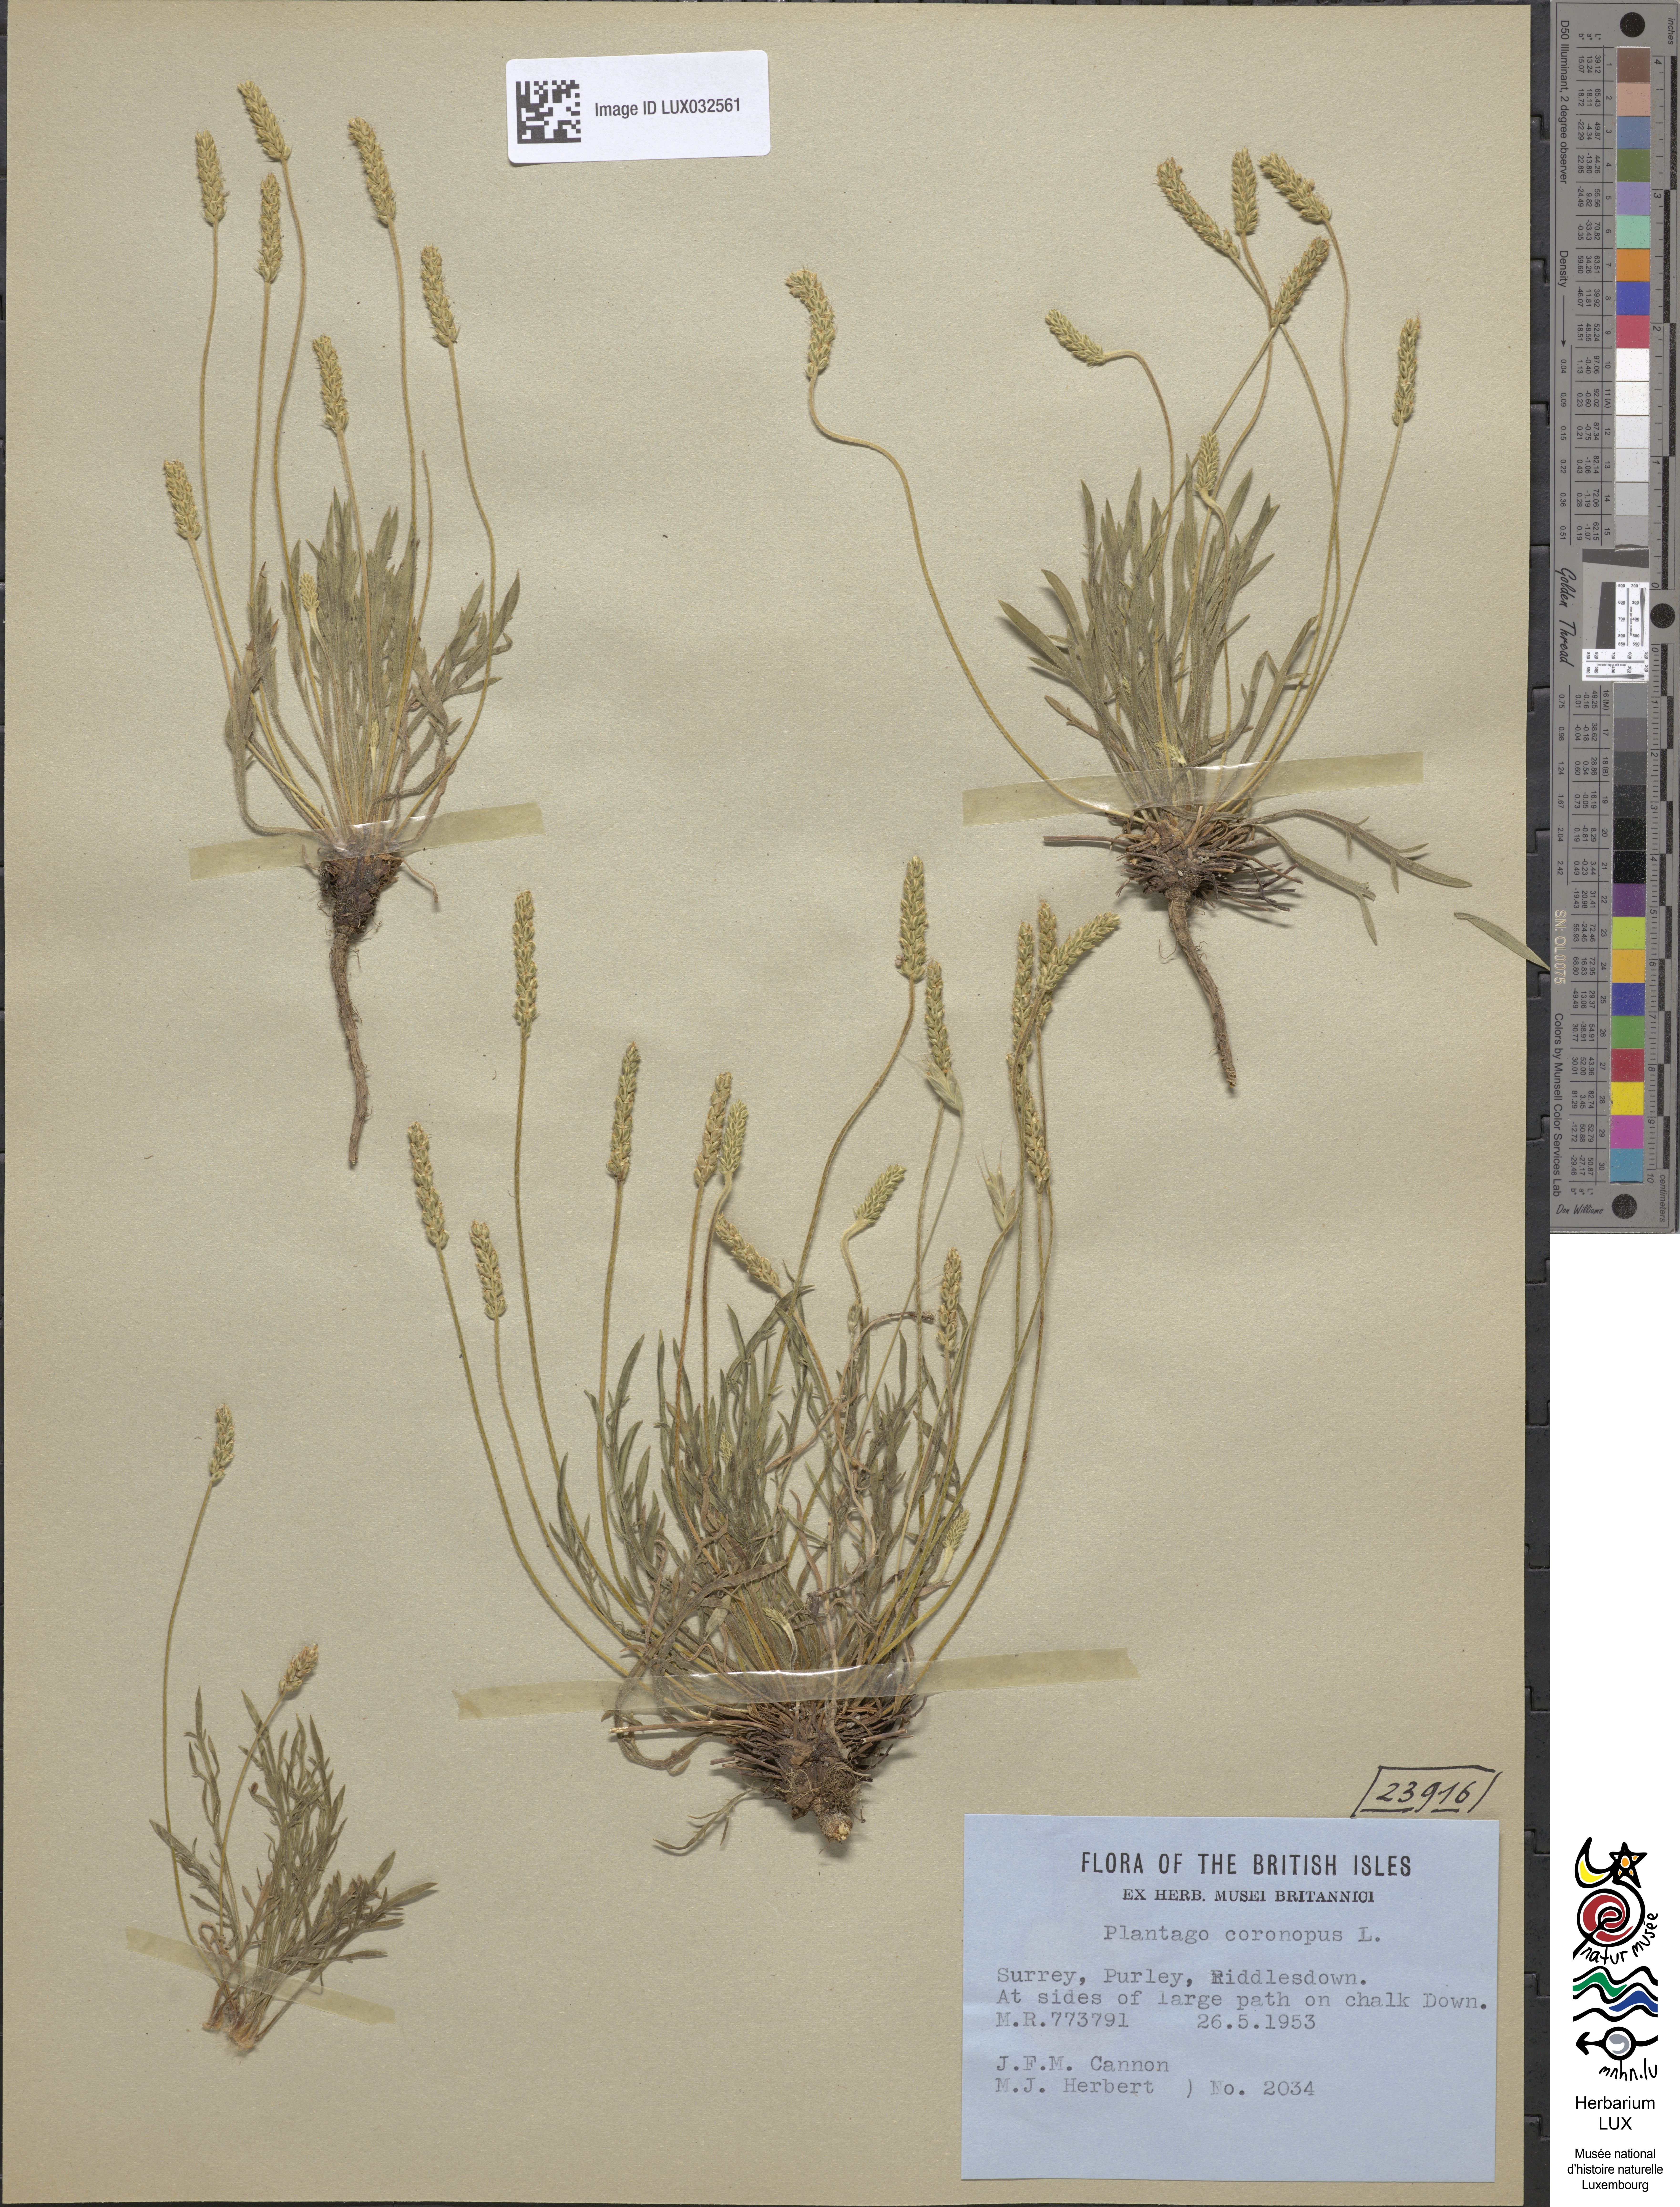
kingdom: Plantae
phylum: Tracheophyta
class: Magnoliopsida
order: Lamiales
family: Plantaginaceae
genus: Plantago
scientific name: Plantago coronopus
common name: Buck's-horn plantain
